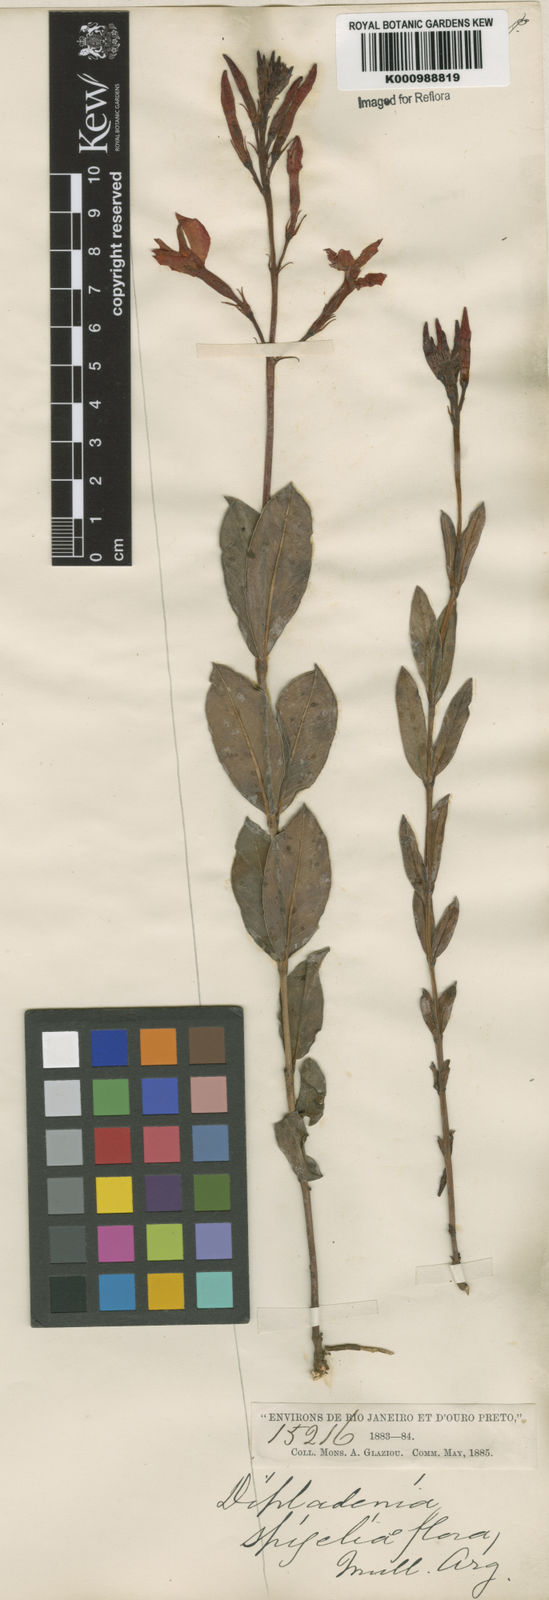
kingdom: Plantae
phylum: Tracheophyta
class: Magnoliopsida
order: Gentianales
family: Apocynaceae
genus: Mandevilla
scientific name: Mandevilla
